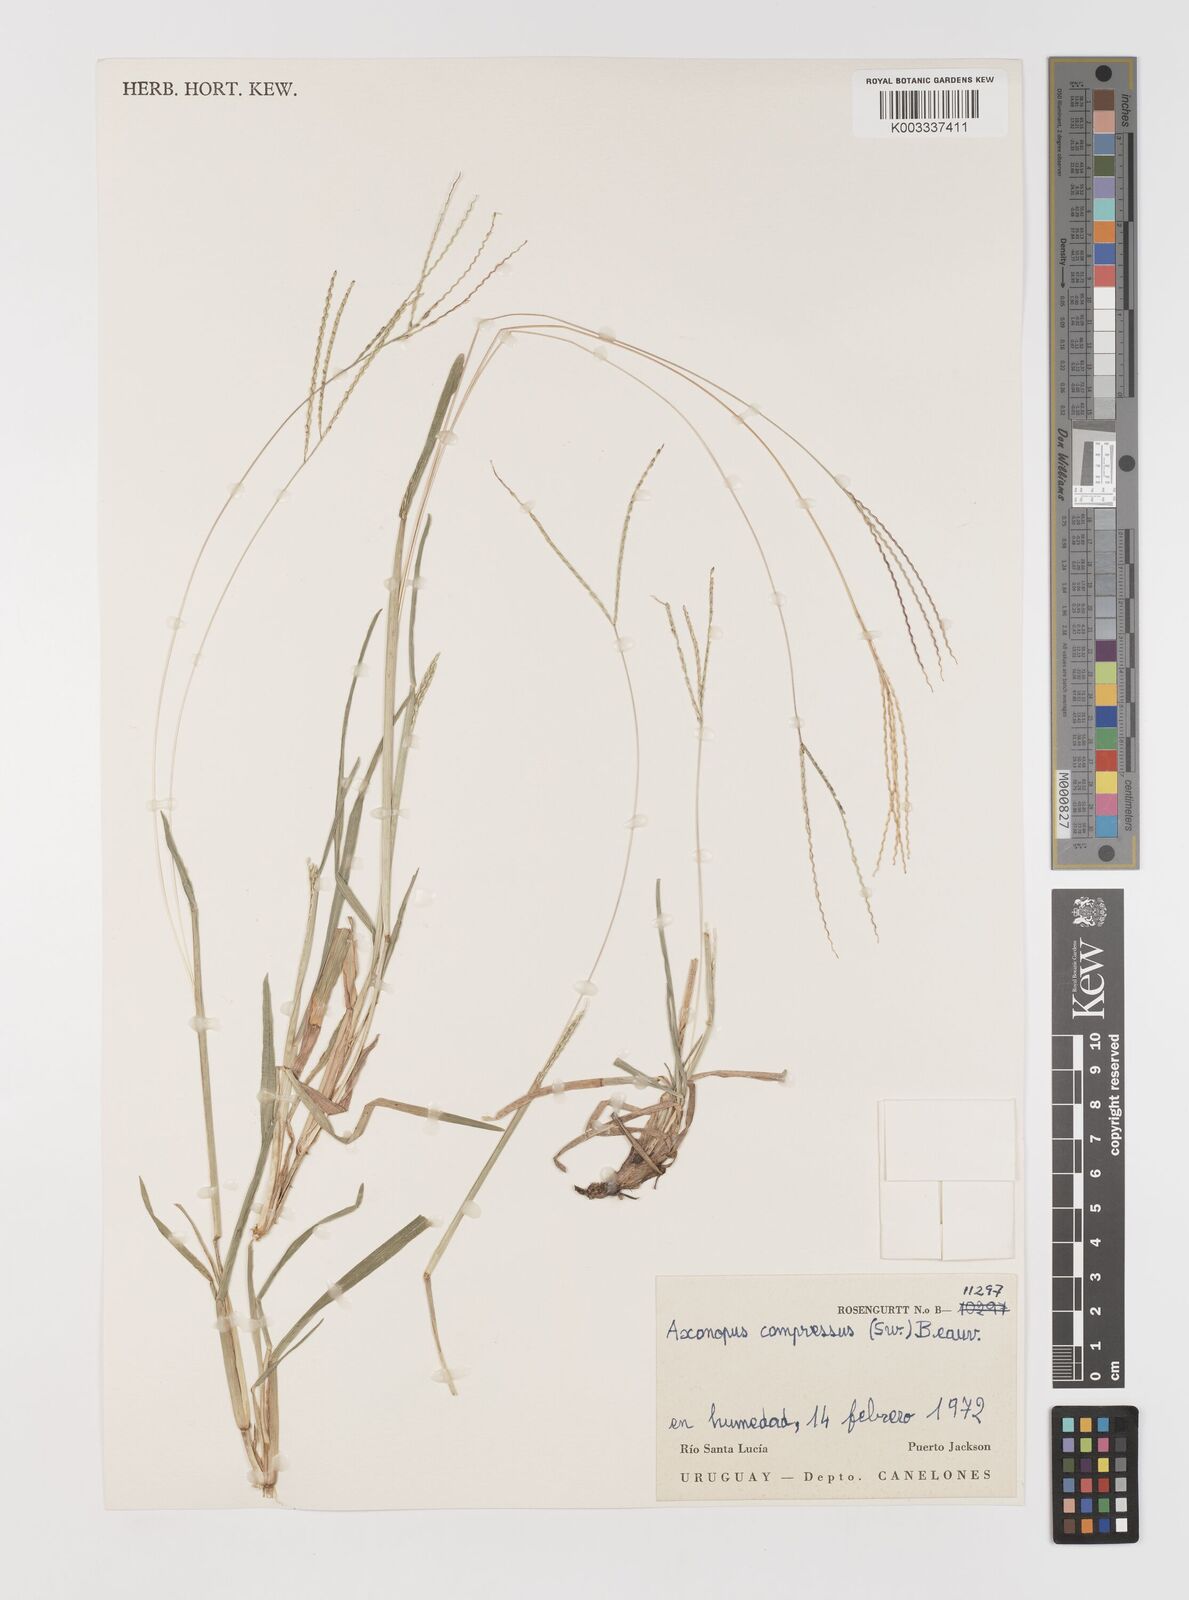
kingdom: Plantae
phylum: Tracheophyta
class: Liliopsida
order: Poales
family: Poaceae
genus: Axonopus
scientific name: Axonopus compressus
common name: American carpet grass
